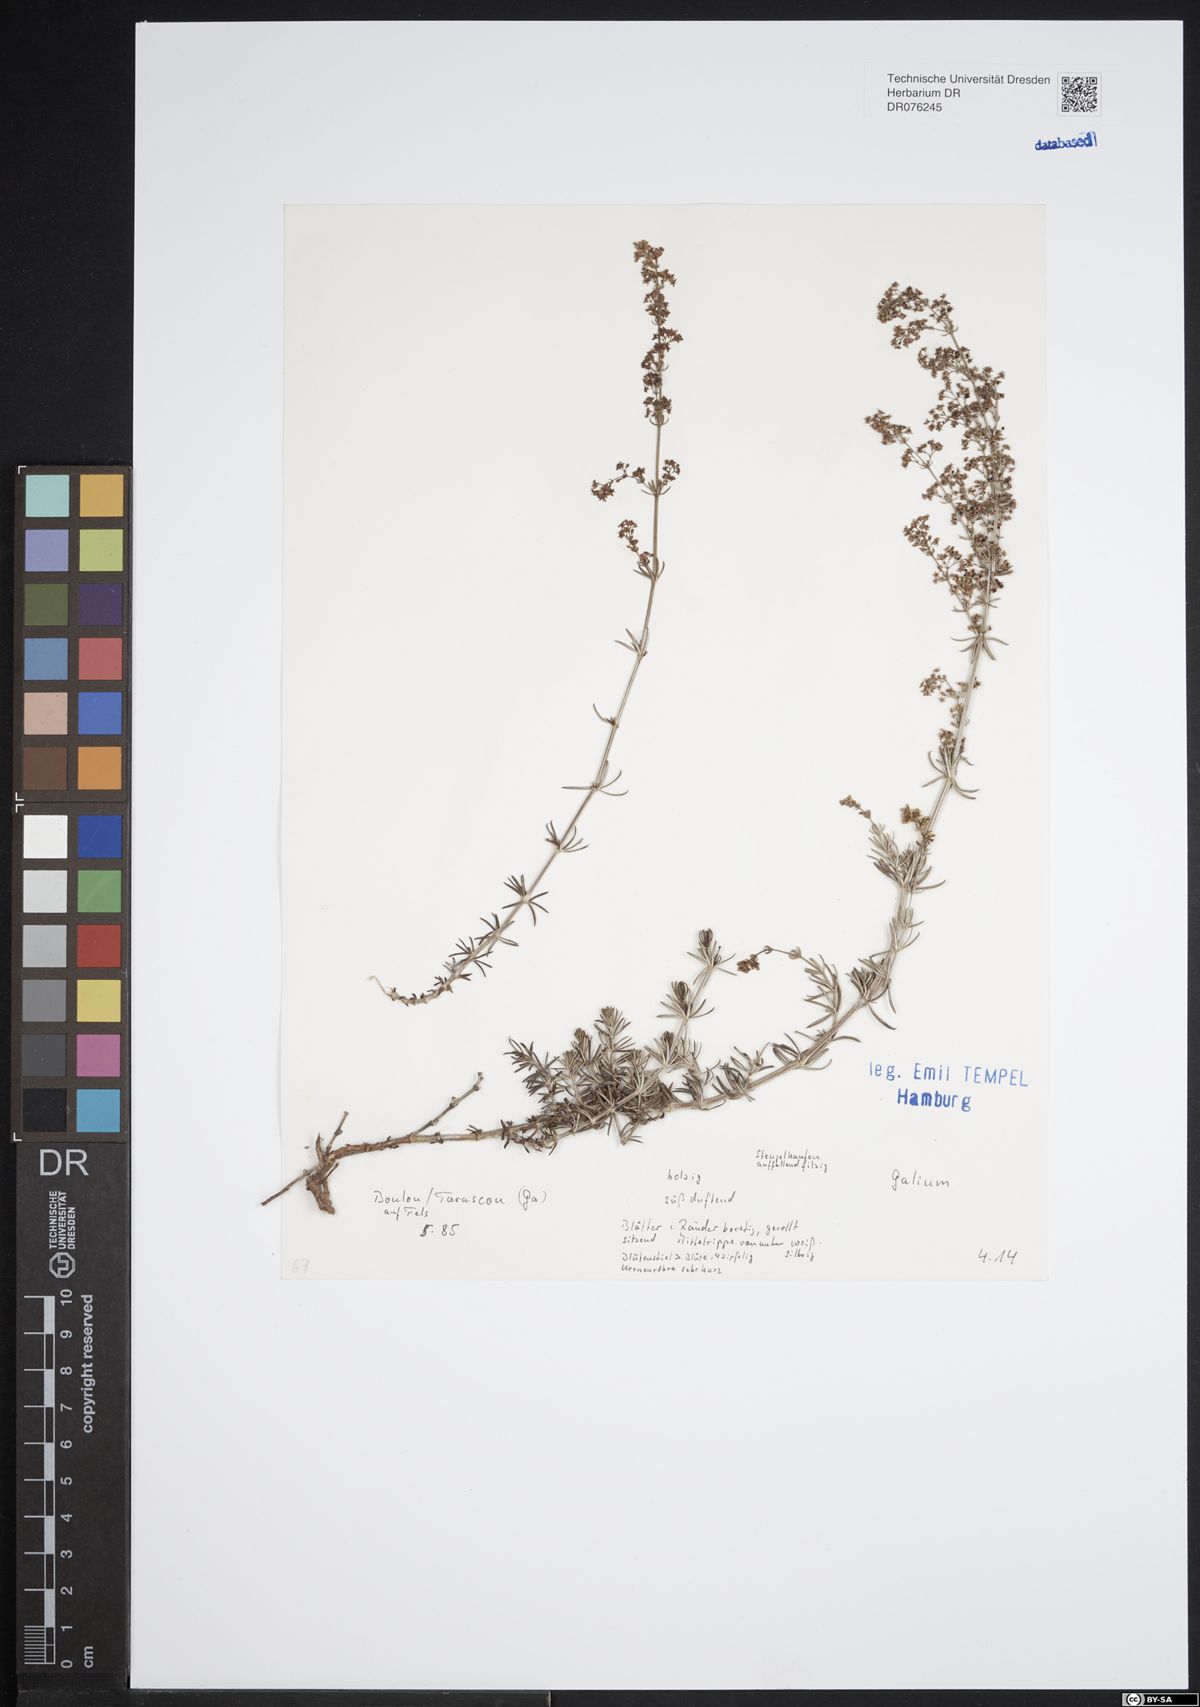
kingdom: Plantae
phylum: Tracheophyta
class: Magnoliopsida
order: Gentianales
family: Rubiaceae
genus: Galium
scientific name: Galium
